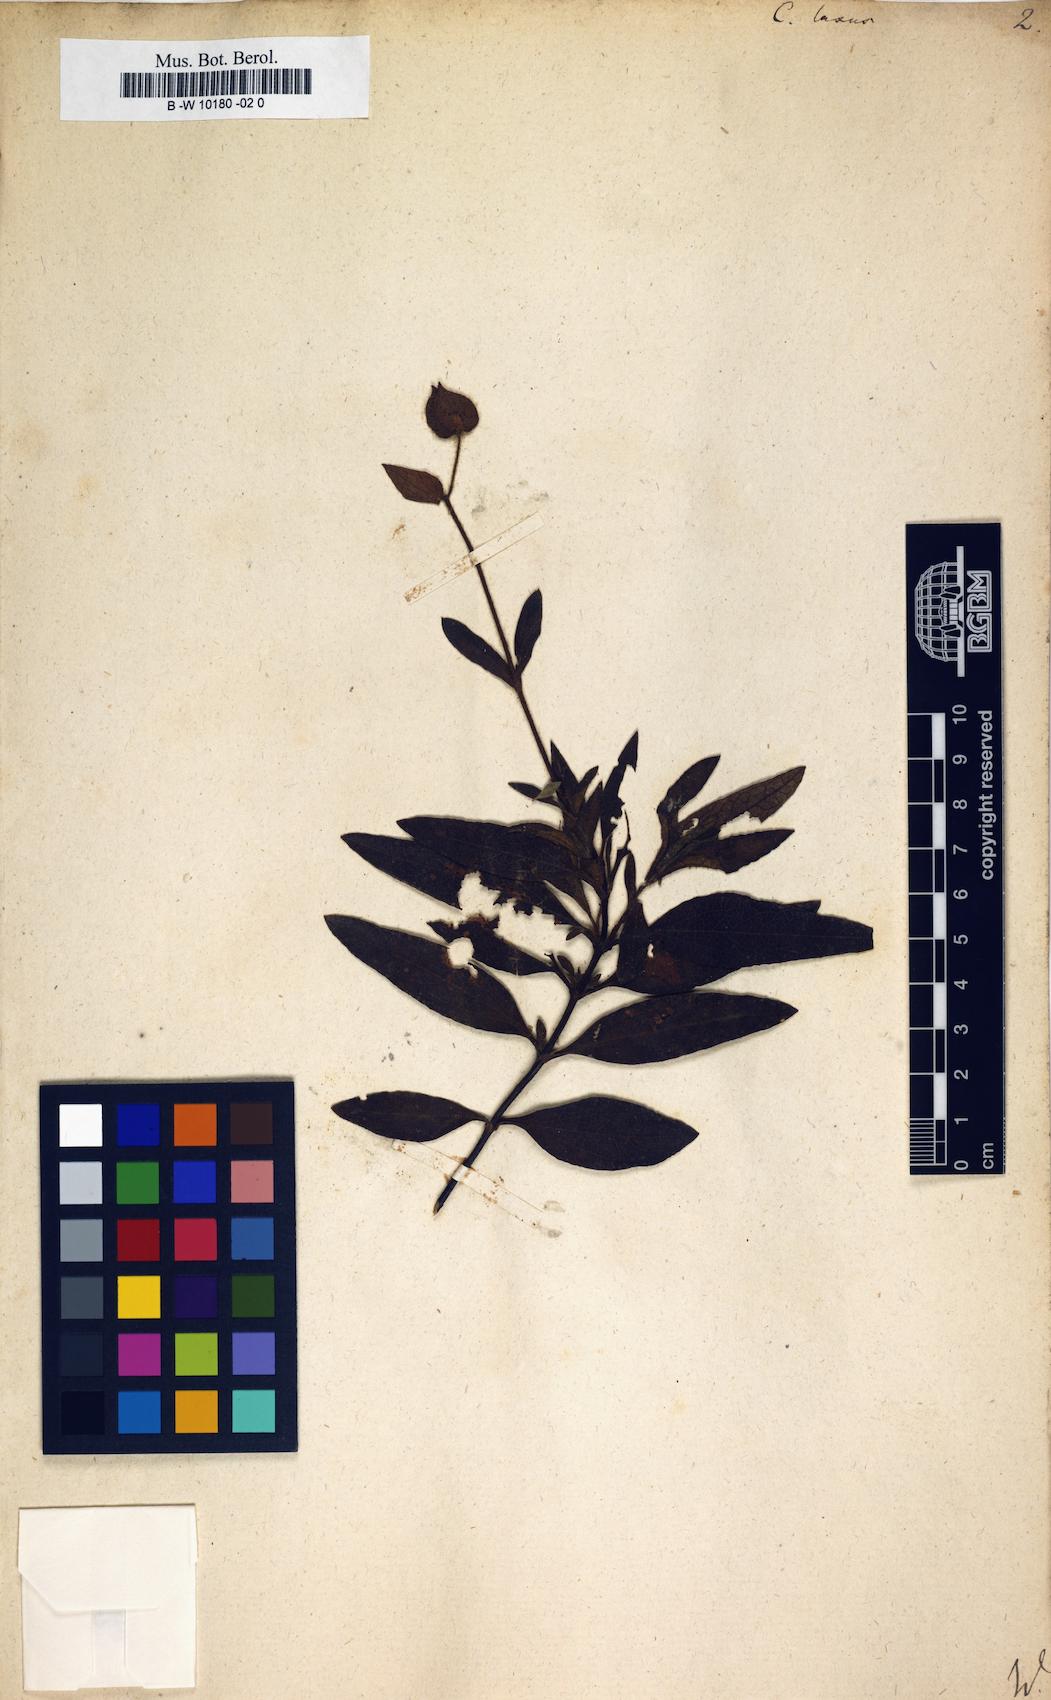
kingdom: Plantae
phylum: Tracheophyta
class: Magnoliopsida
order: Malvales
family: Cistaceae
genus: Cistus
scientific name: Cistus laxus
